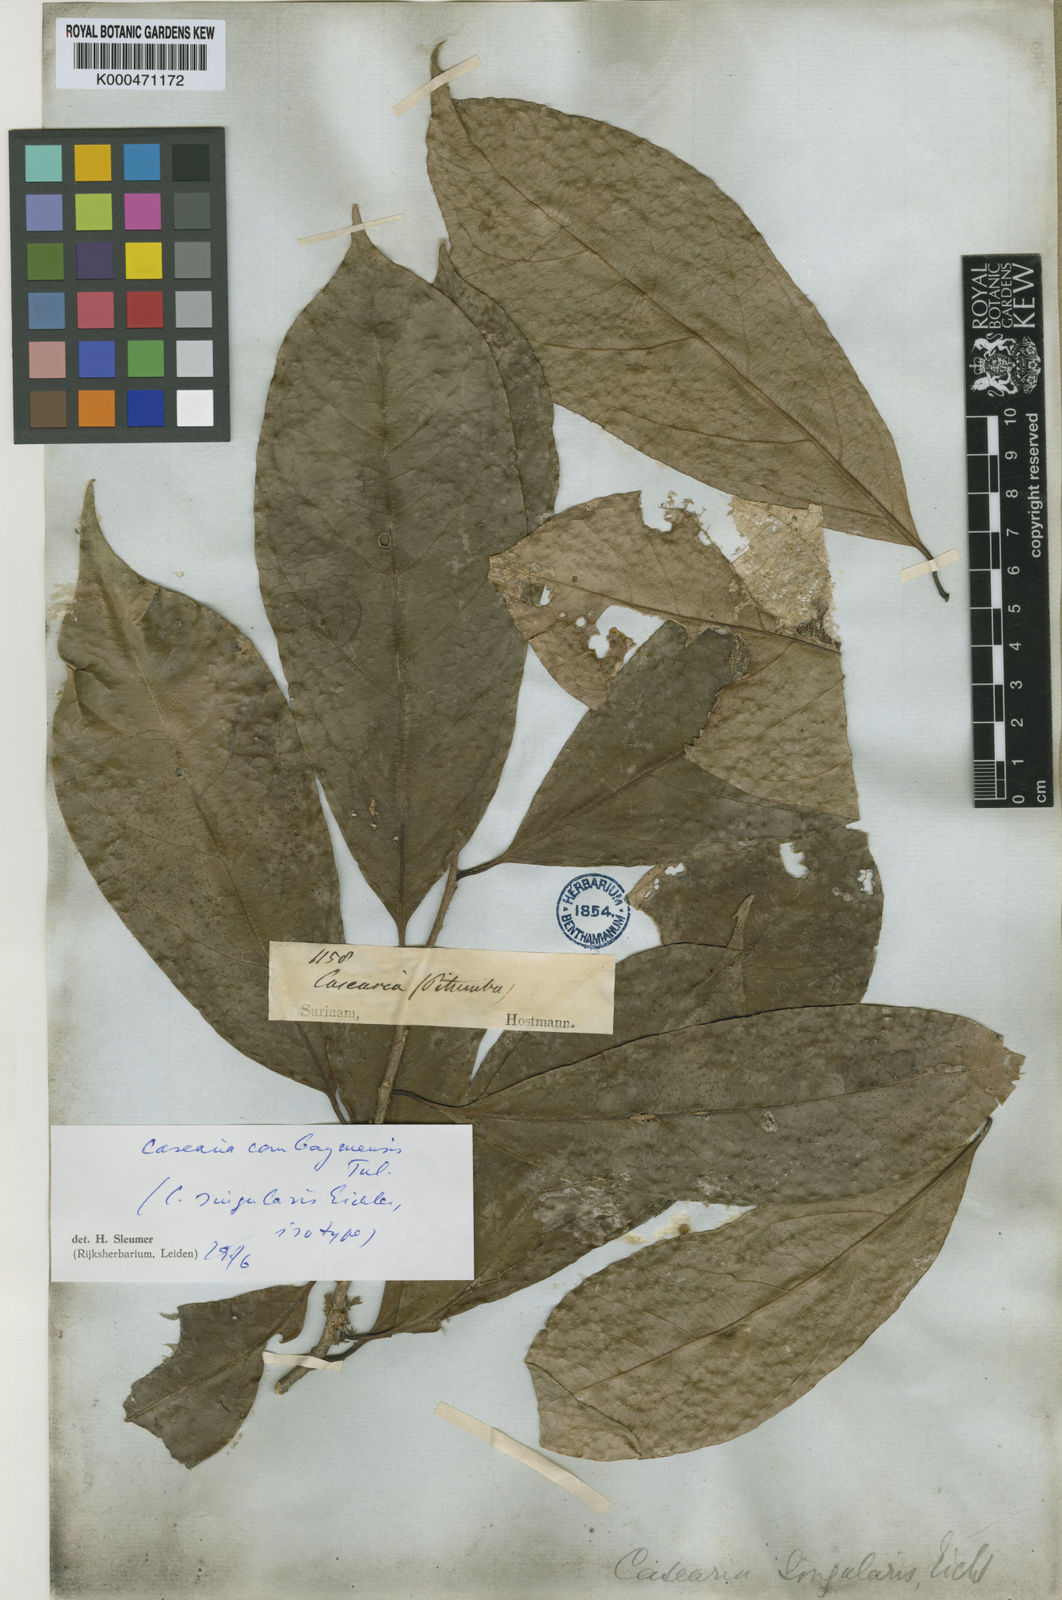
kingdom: Plantae
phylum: Tracheophyta
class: Magnoliopsida
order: Malpighiales
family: Salicaceae
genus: Casearia
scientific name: Casearia combaymensis
